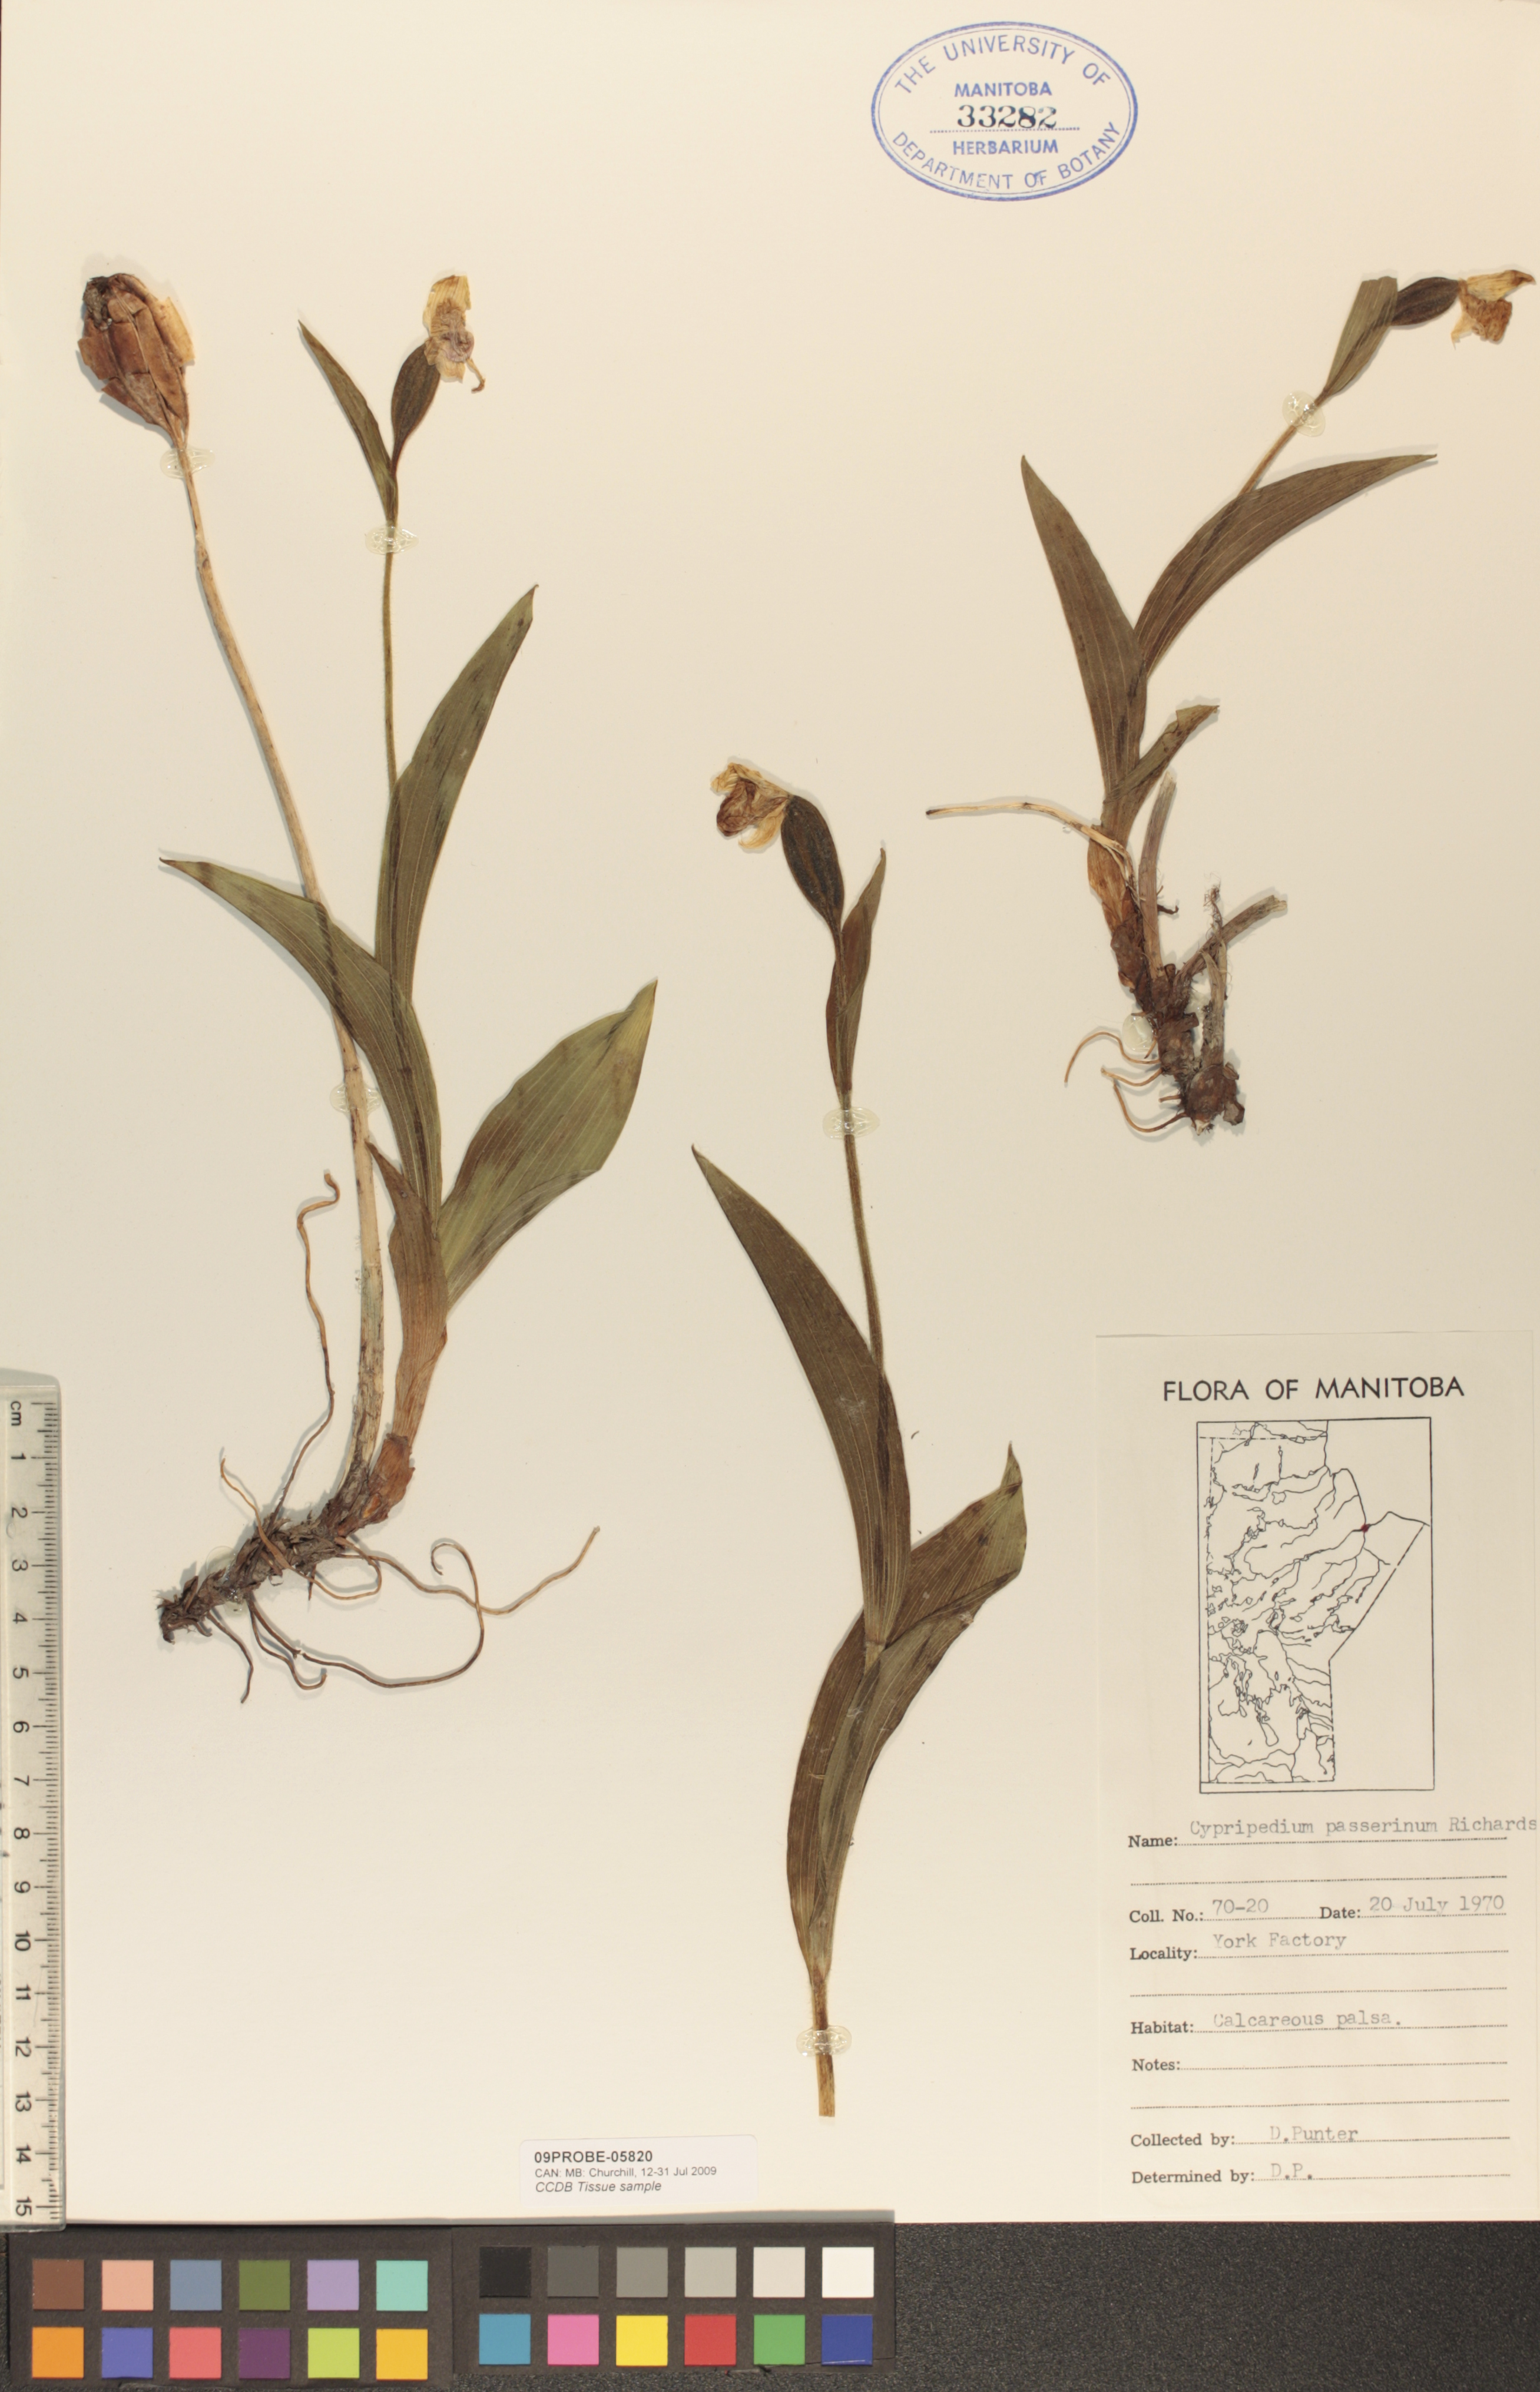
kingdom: Plantae
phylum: Tracheophyta
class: Liliopsida
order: Asparagales
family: Orchidaceae
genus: Cypripedium
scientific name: Cypripedium passerinum
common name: Sparrow's-egg lady's-slipper
